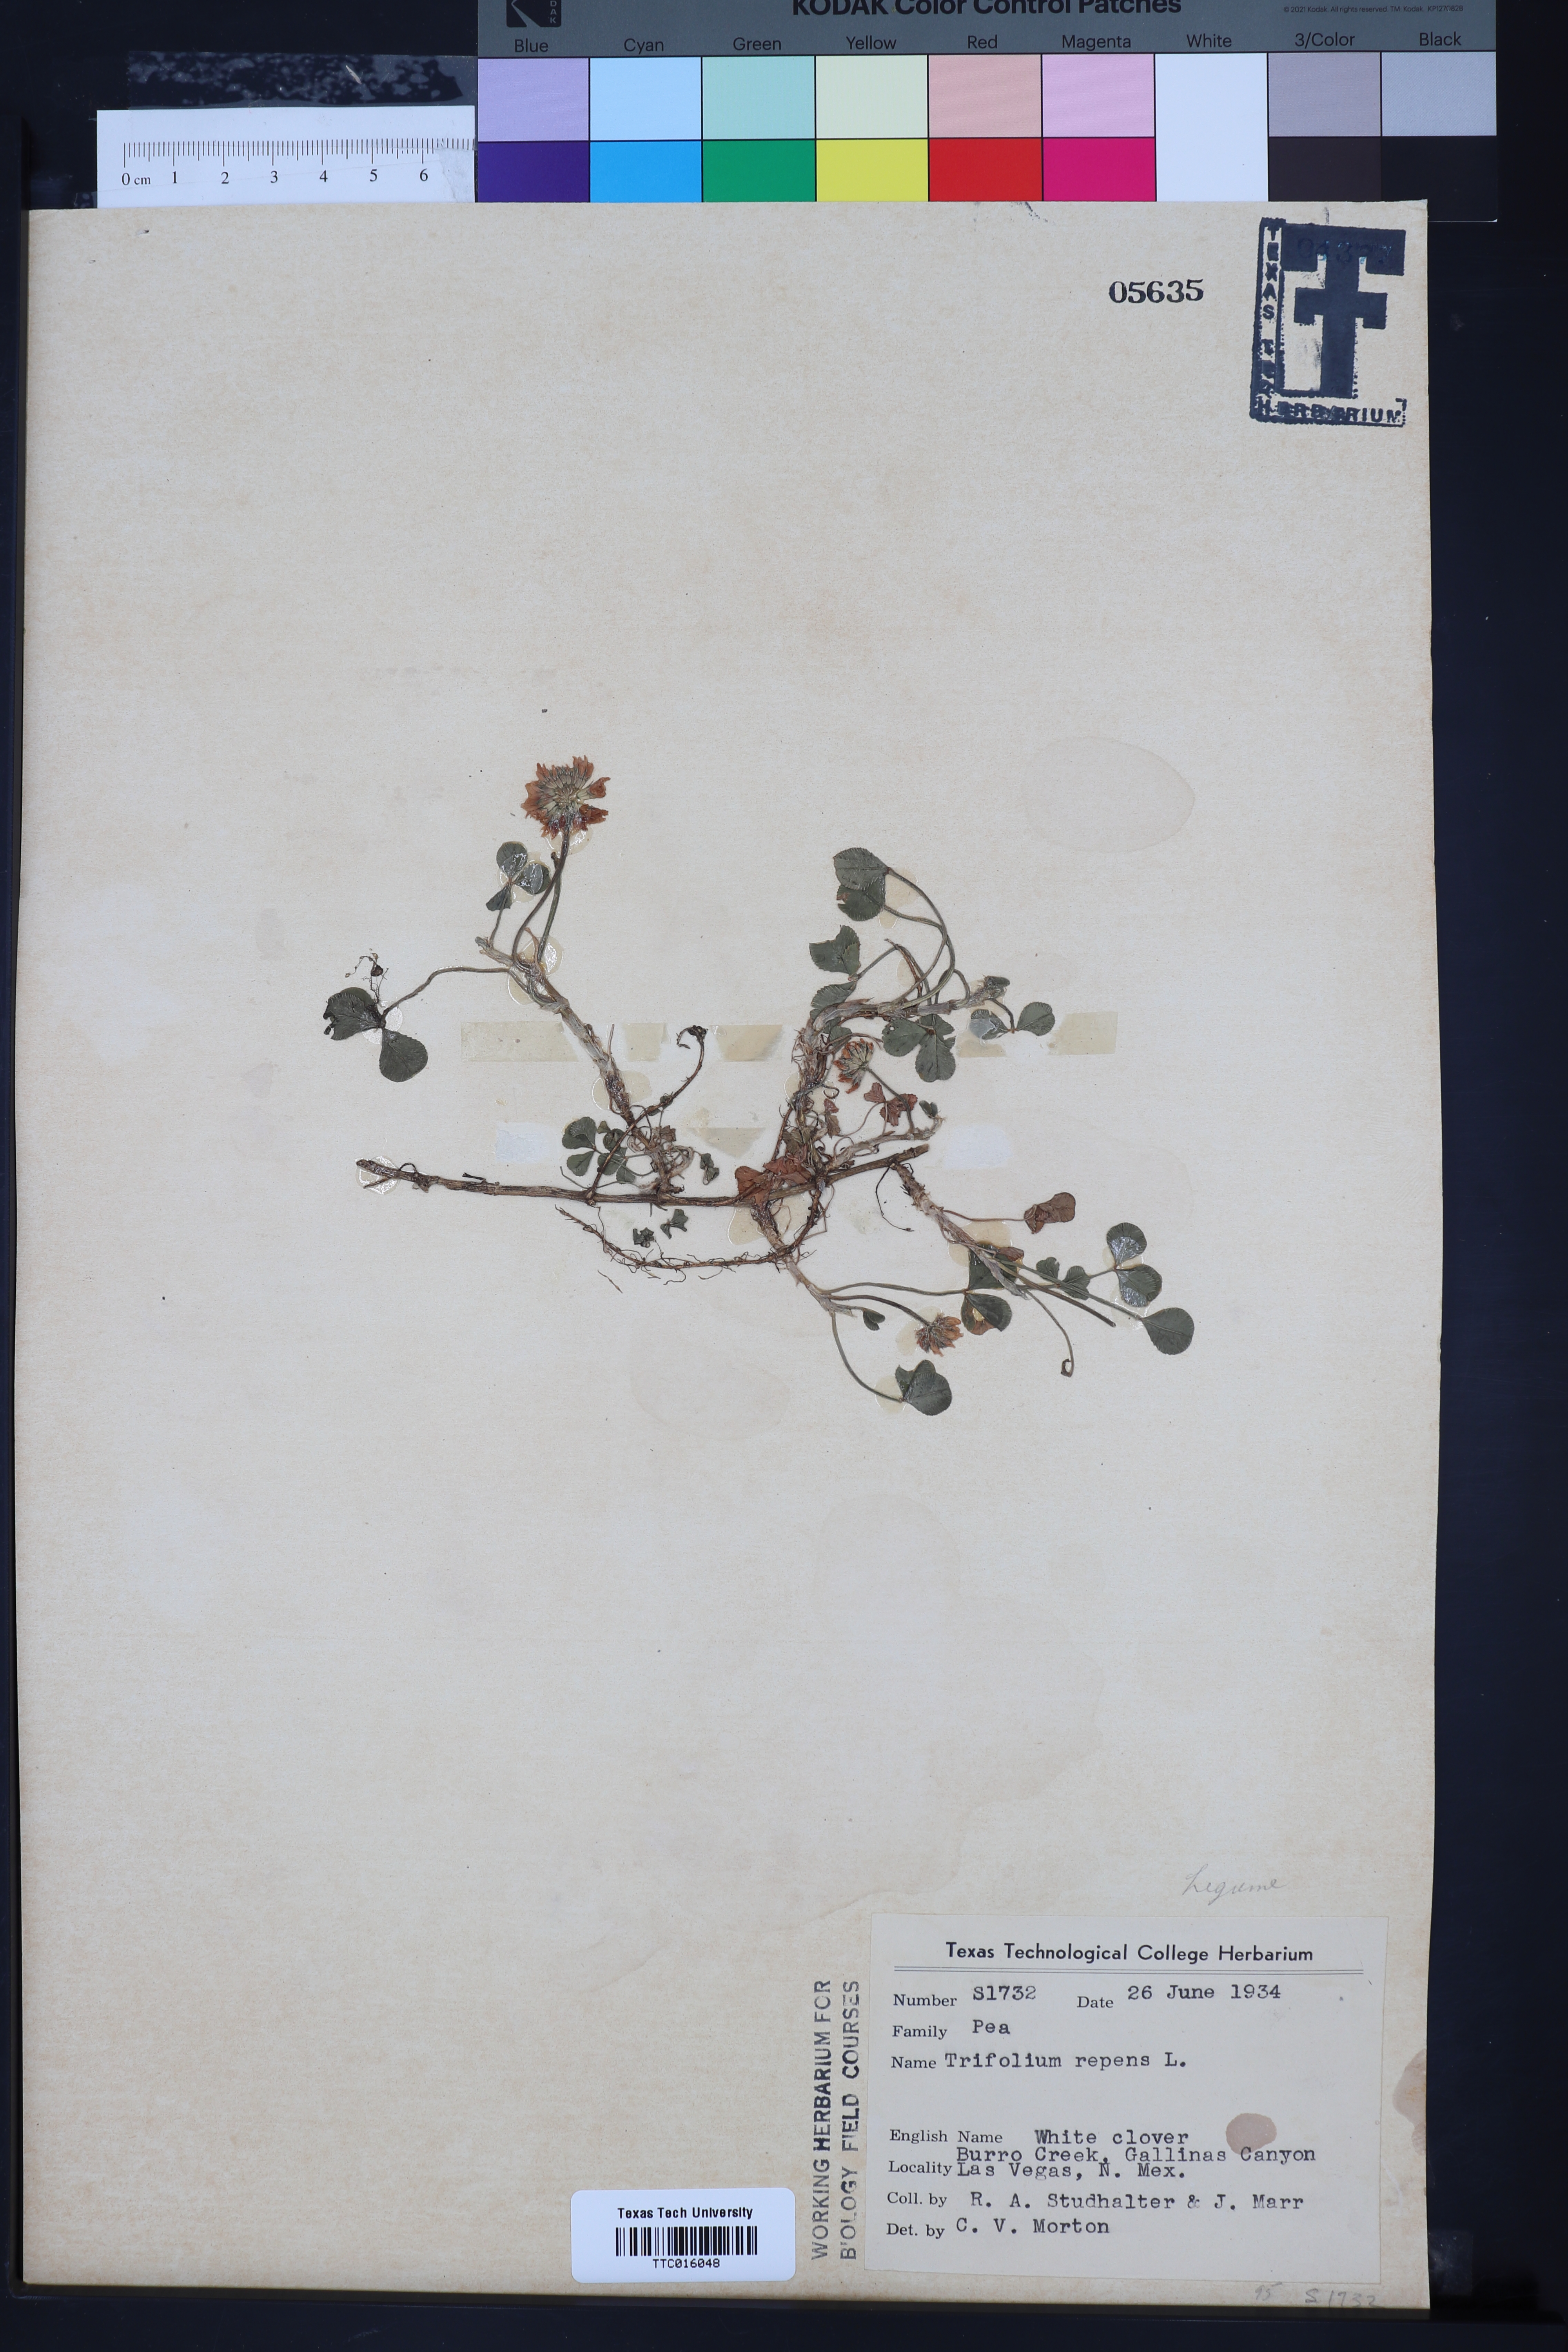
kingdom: Plantae
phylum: Tracheophyta
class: Magnoliopsida
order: Fabales
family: Fabaceae
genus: Trifolium
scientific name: Trifolium repens
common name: White clover
